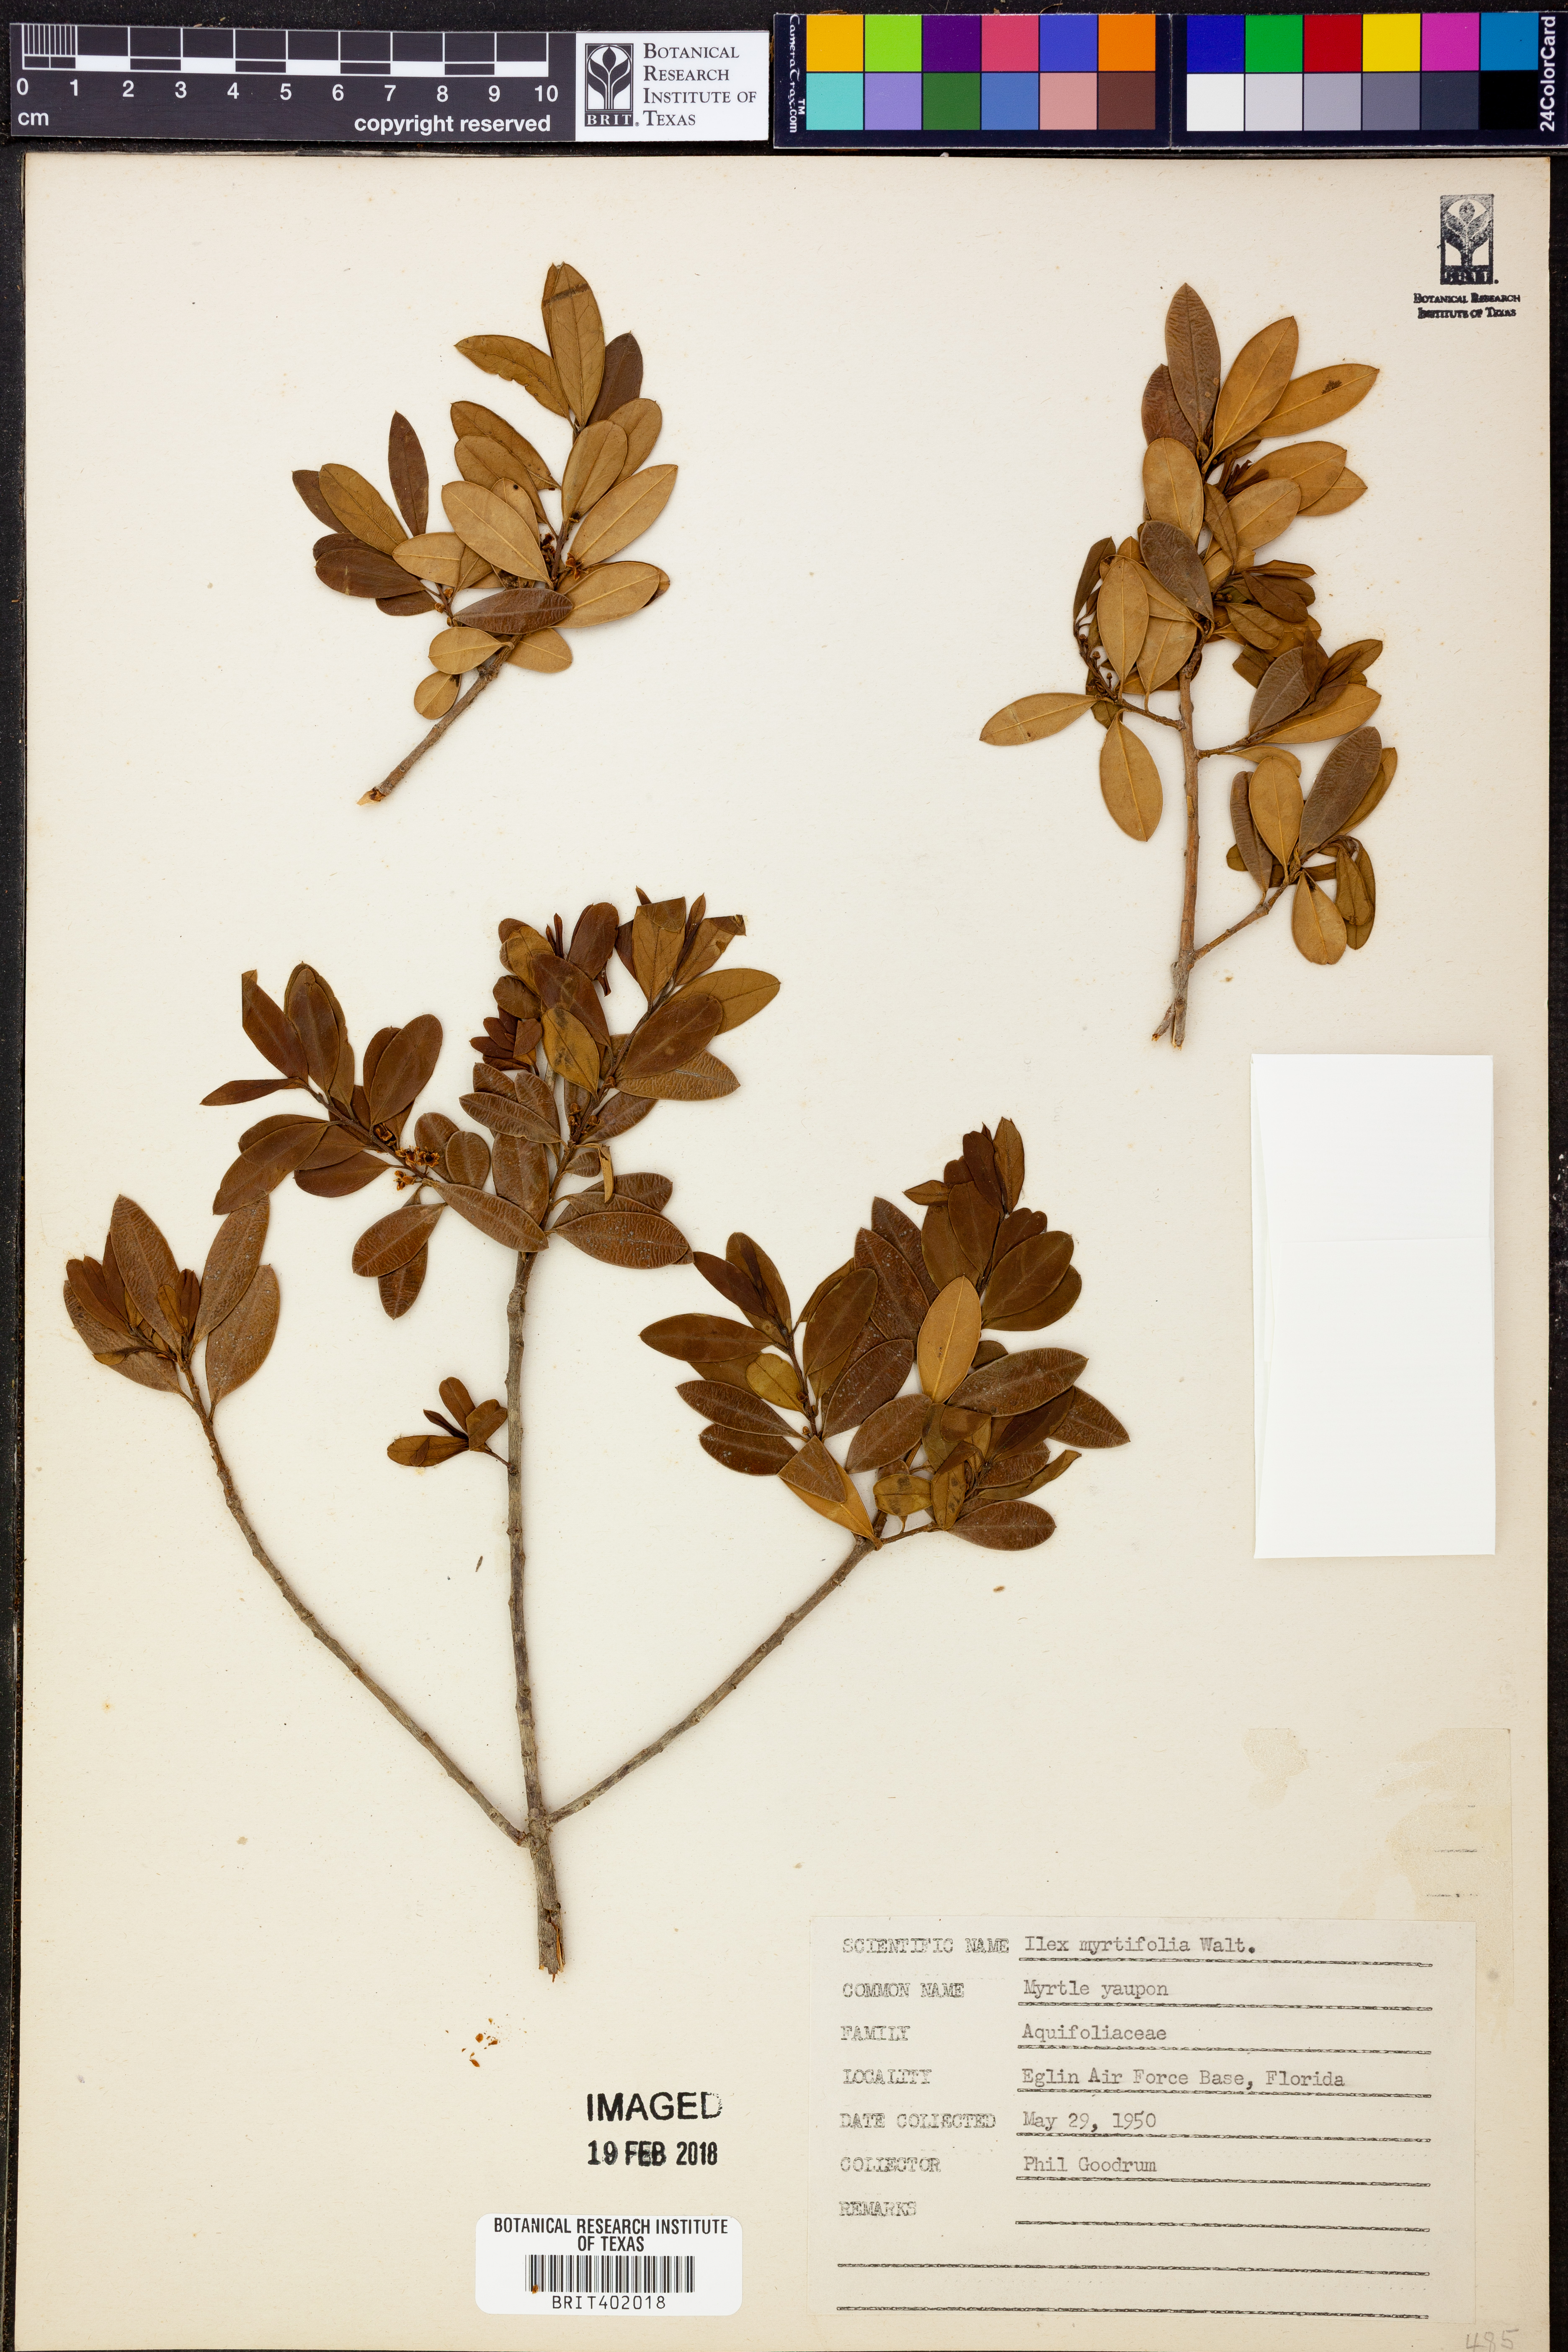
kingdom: Plantae
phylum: Tracheophyta
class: Magnoliopsida
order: Aquifoliales
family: Aquifoliaceae
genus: Ilex
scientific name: Ilex myrtifolia
